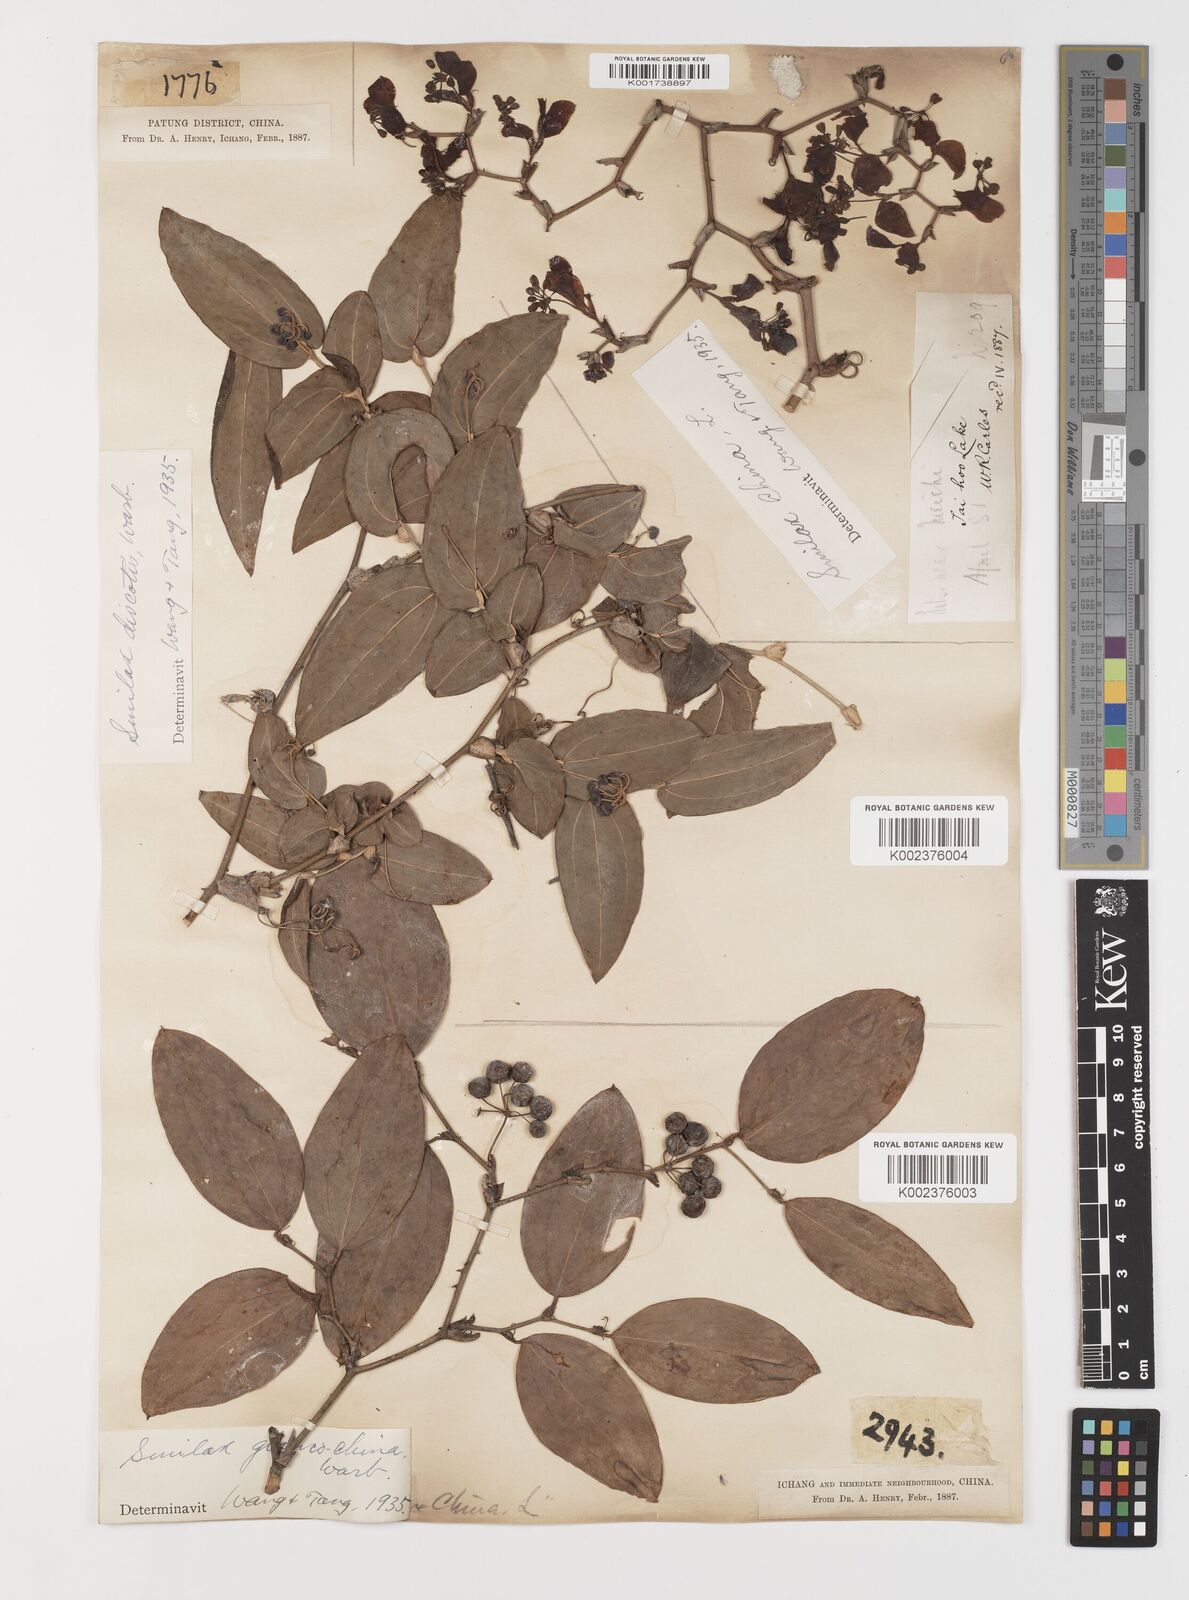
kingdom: Plantae
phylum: Tracheophyta
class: Liliopsida
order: Liliales
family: Smilacaceae
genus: Smilax
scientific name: Smilax discotis
